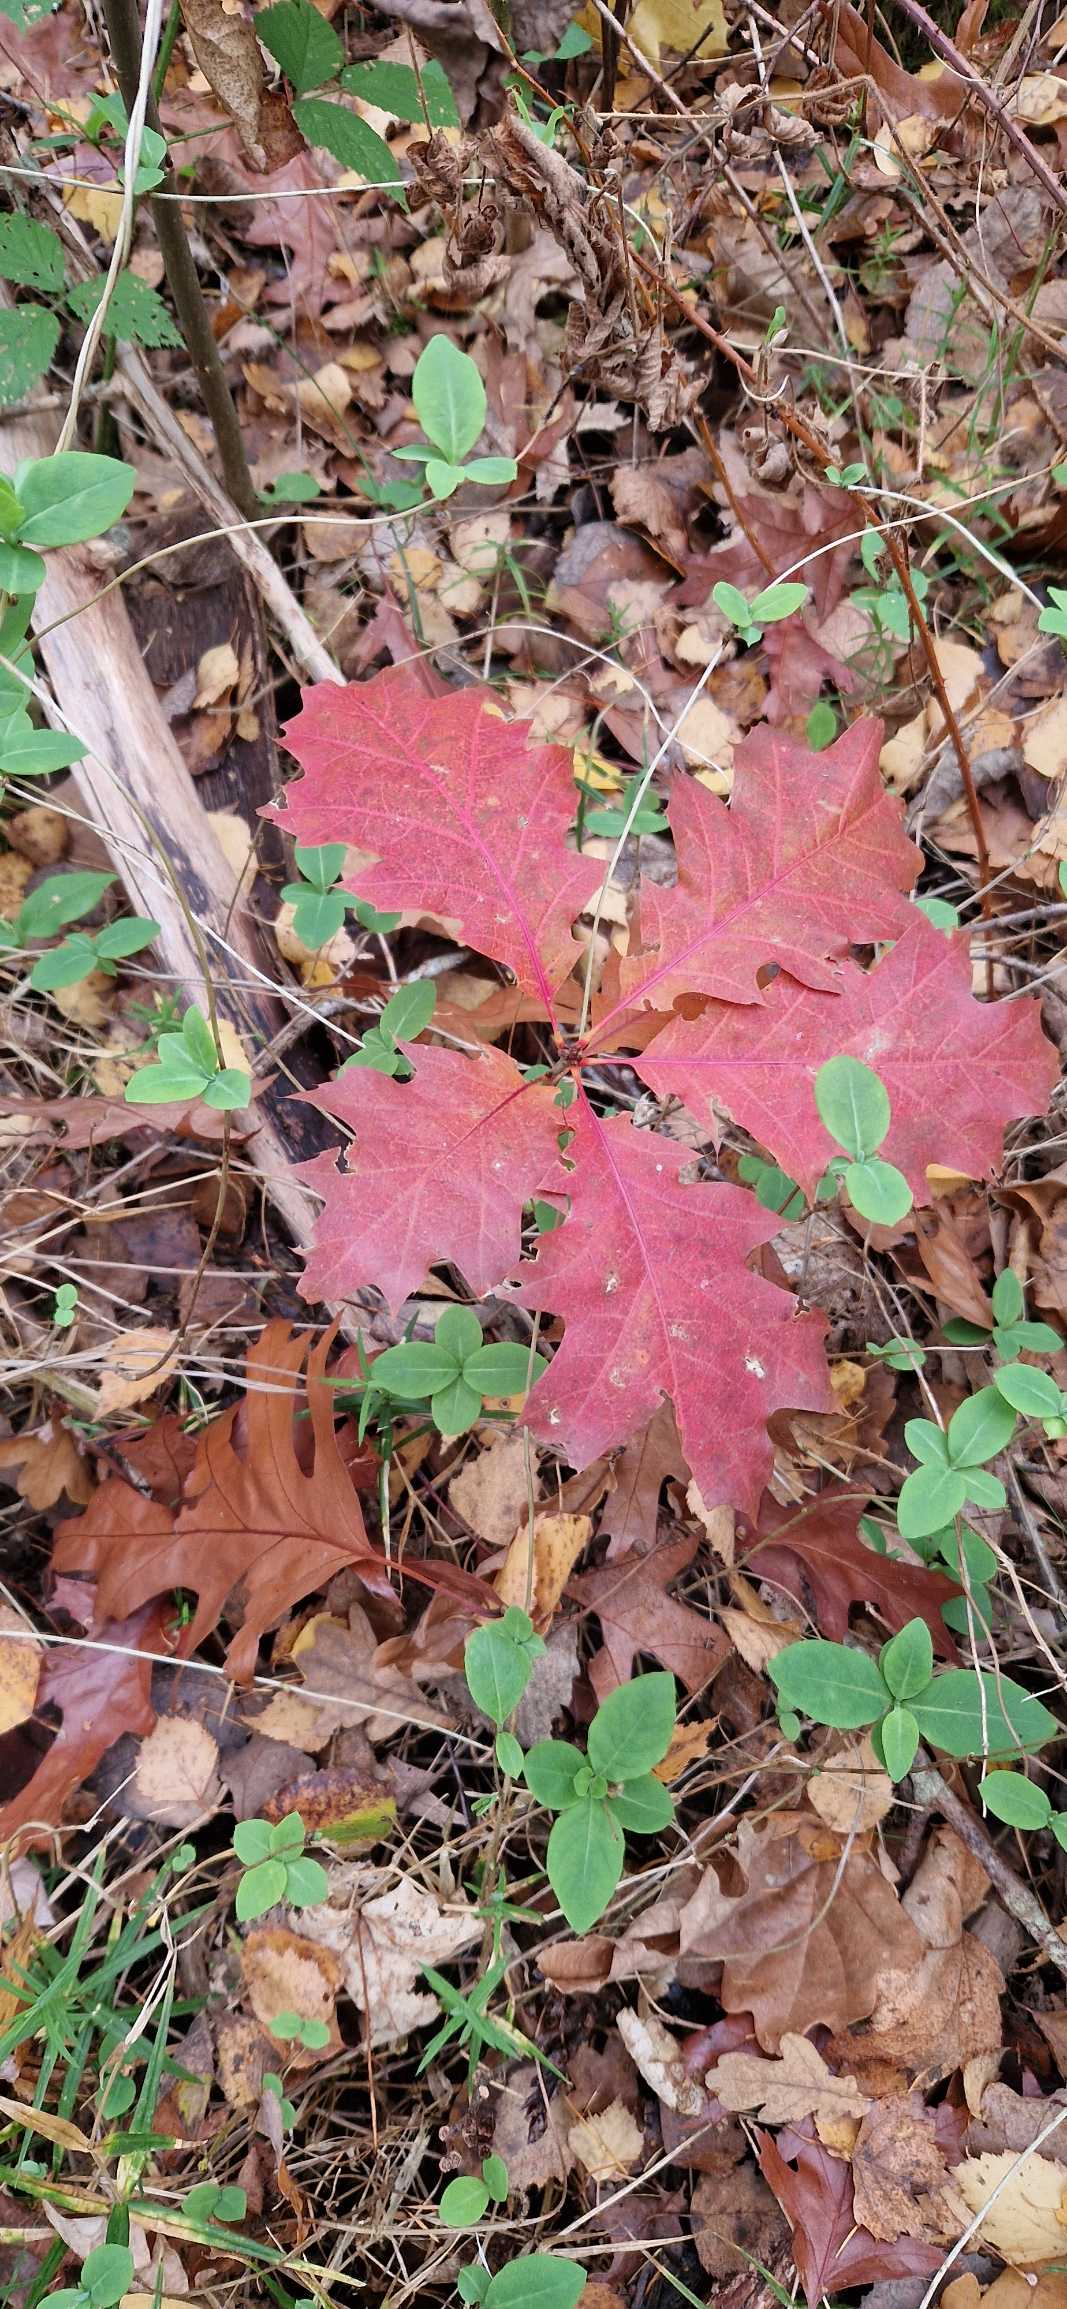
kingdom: Plantae
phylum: Tracheophyta
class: Magnoliopsida
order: Fagales
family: Fagaceae
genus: Quercus
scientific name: Quercus rubra
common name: Rød-eg
